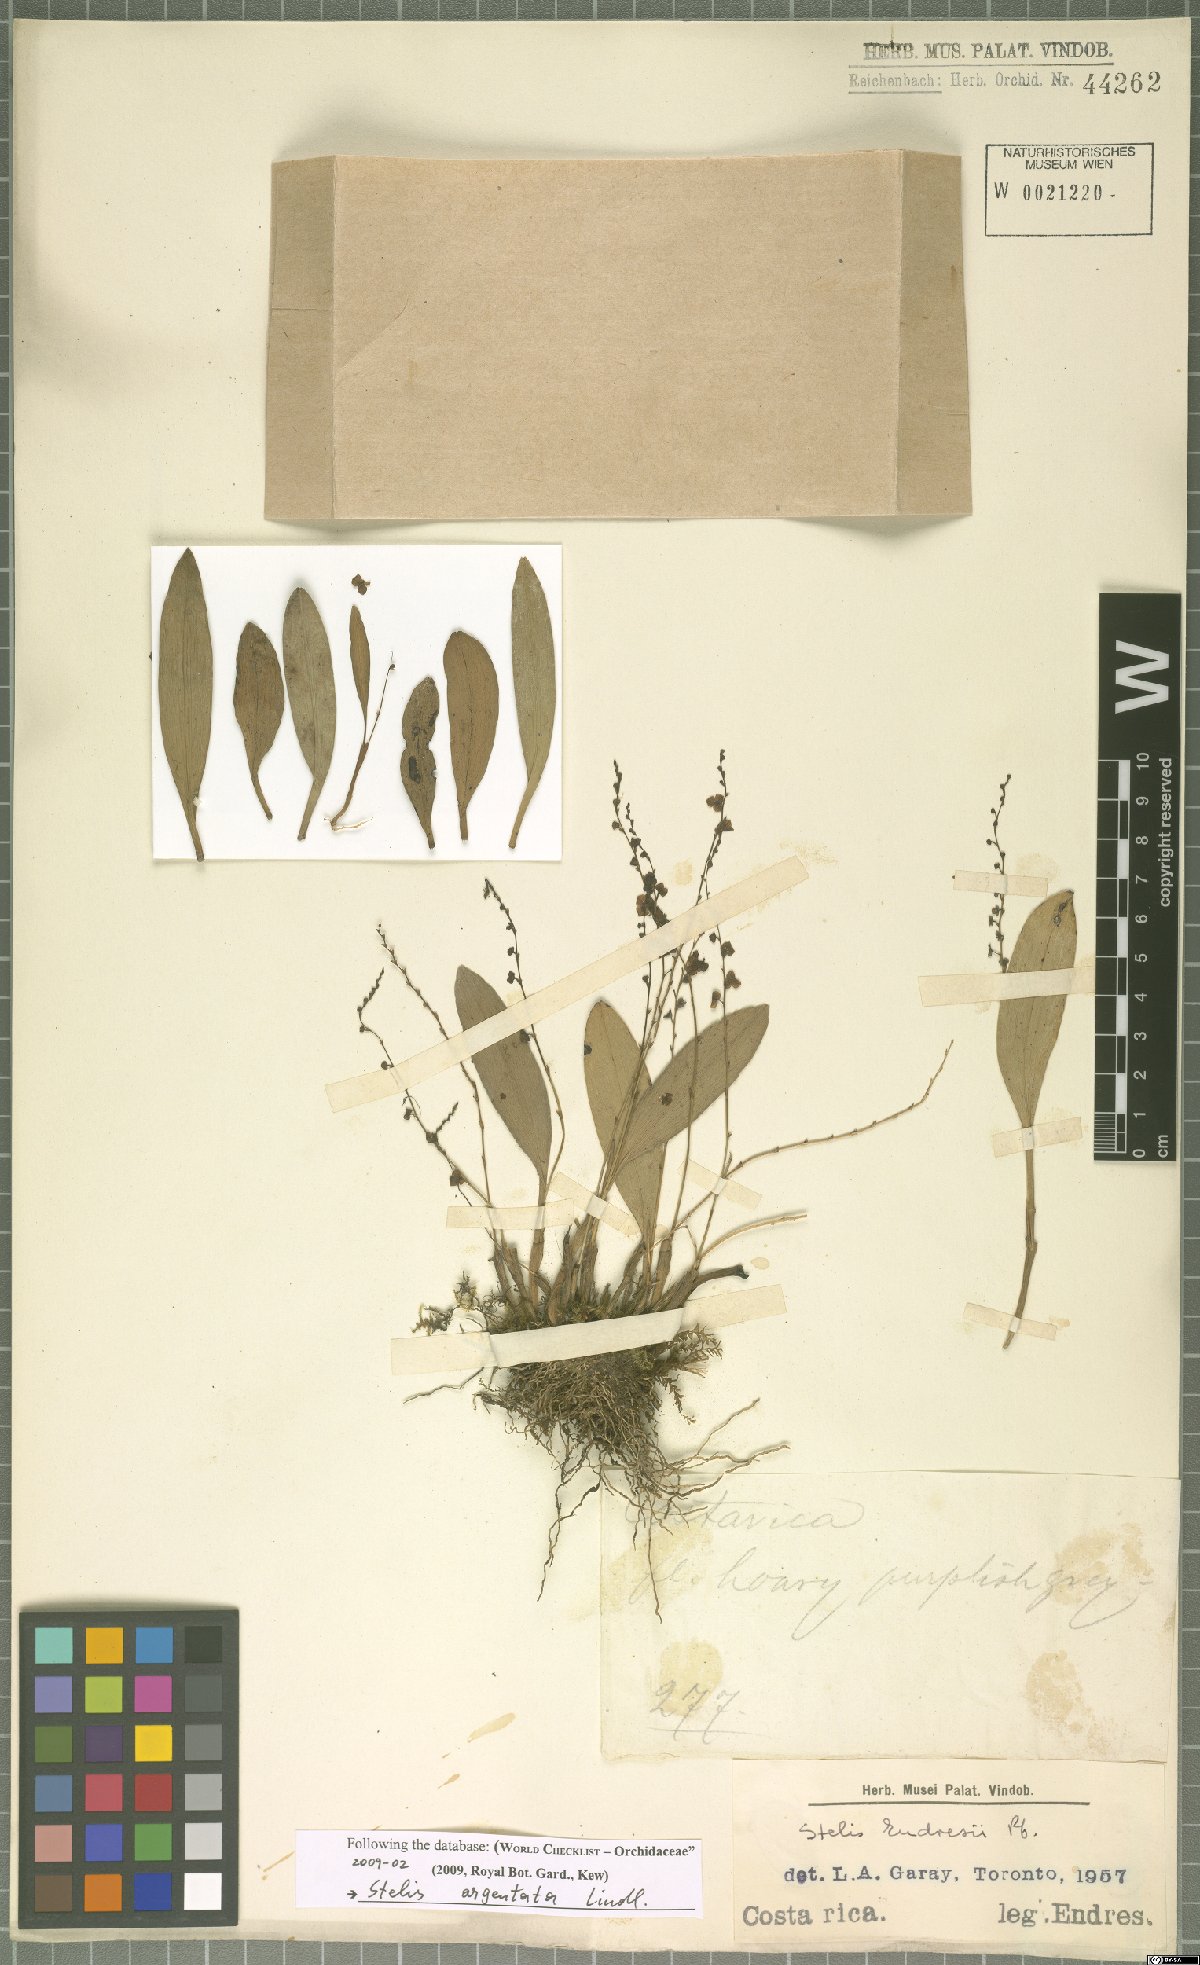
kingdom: Plantae
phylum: Tracheophyta
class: Liliopsida
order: Asparagales
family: Orchidaceae
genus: Stelis
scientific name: Stelis argentata
